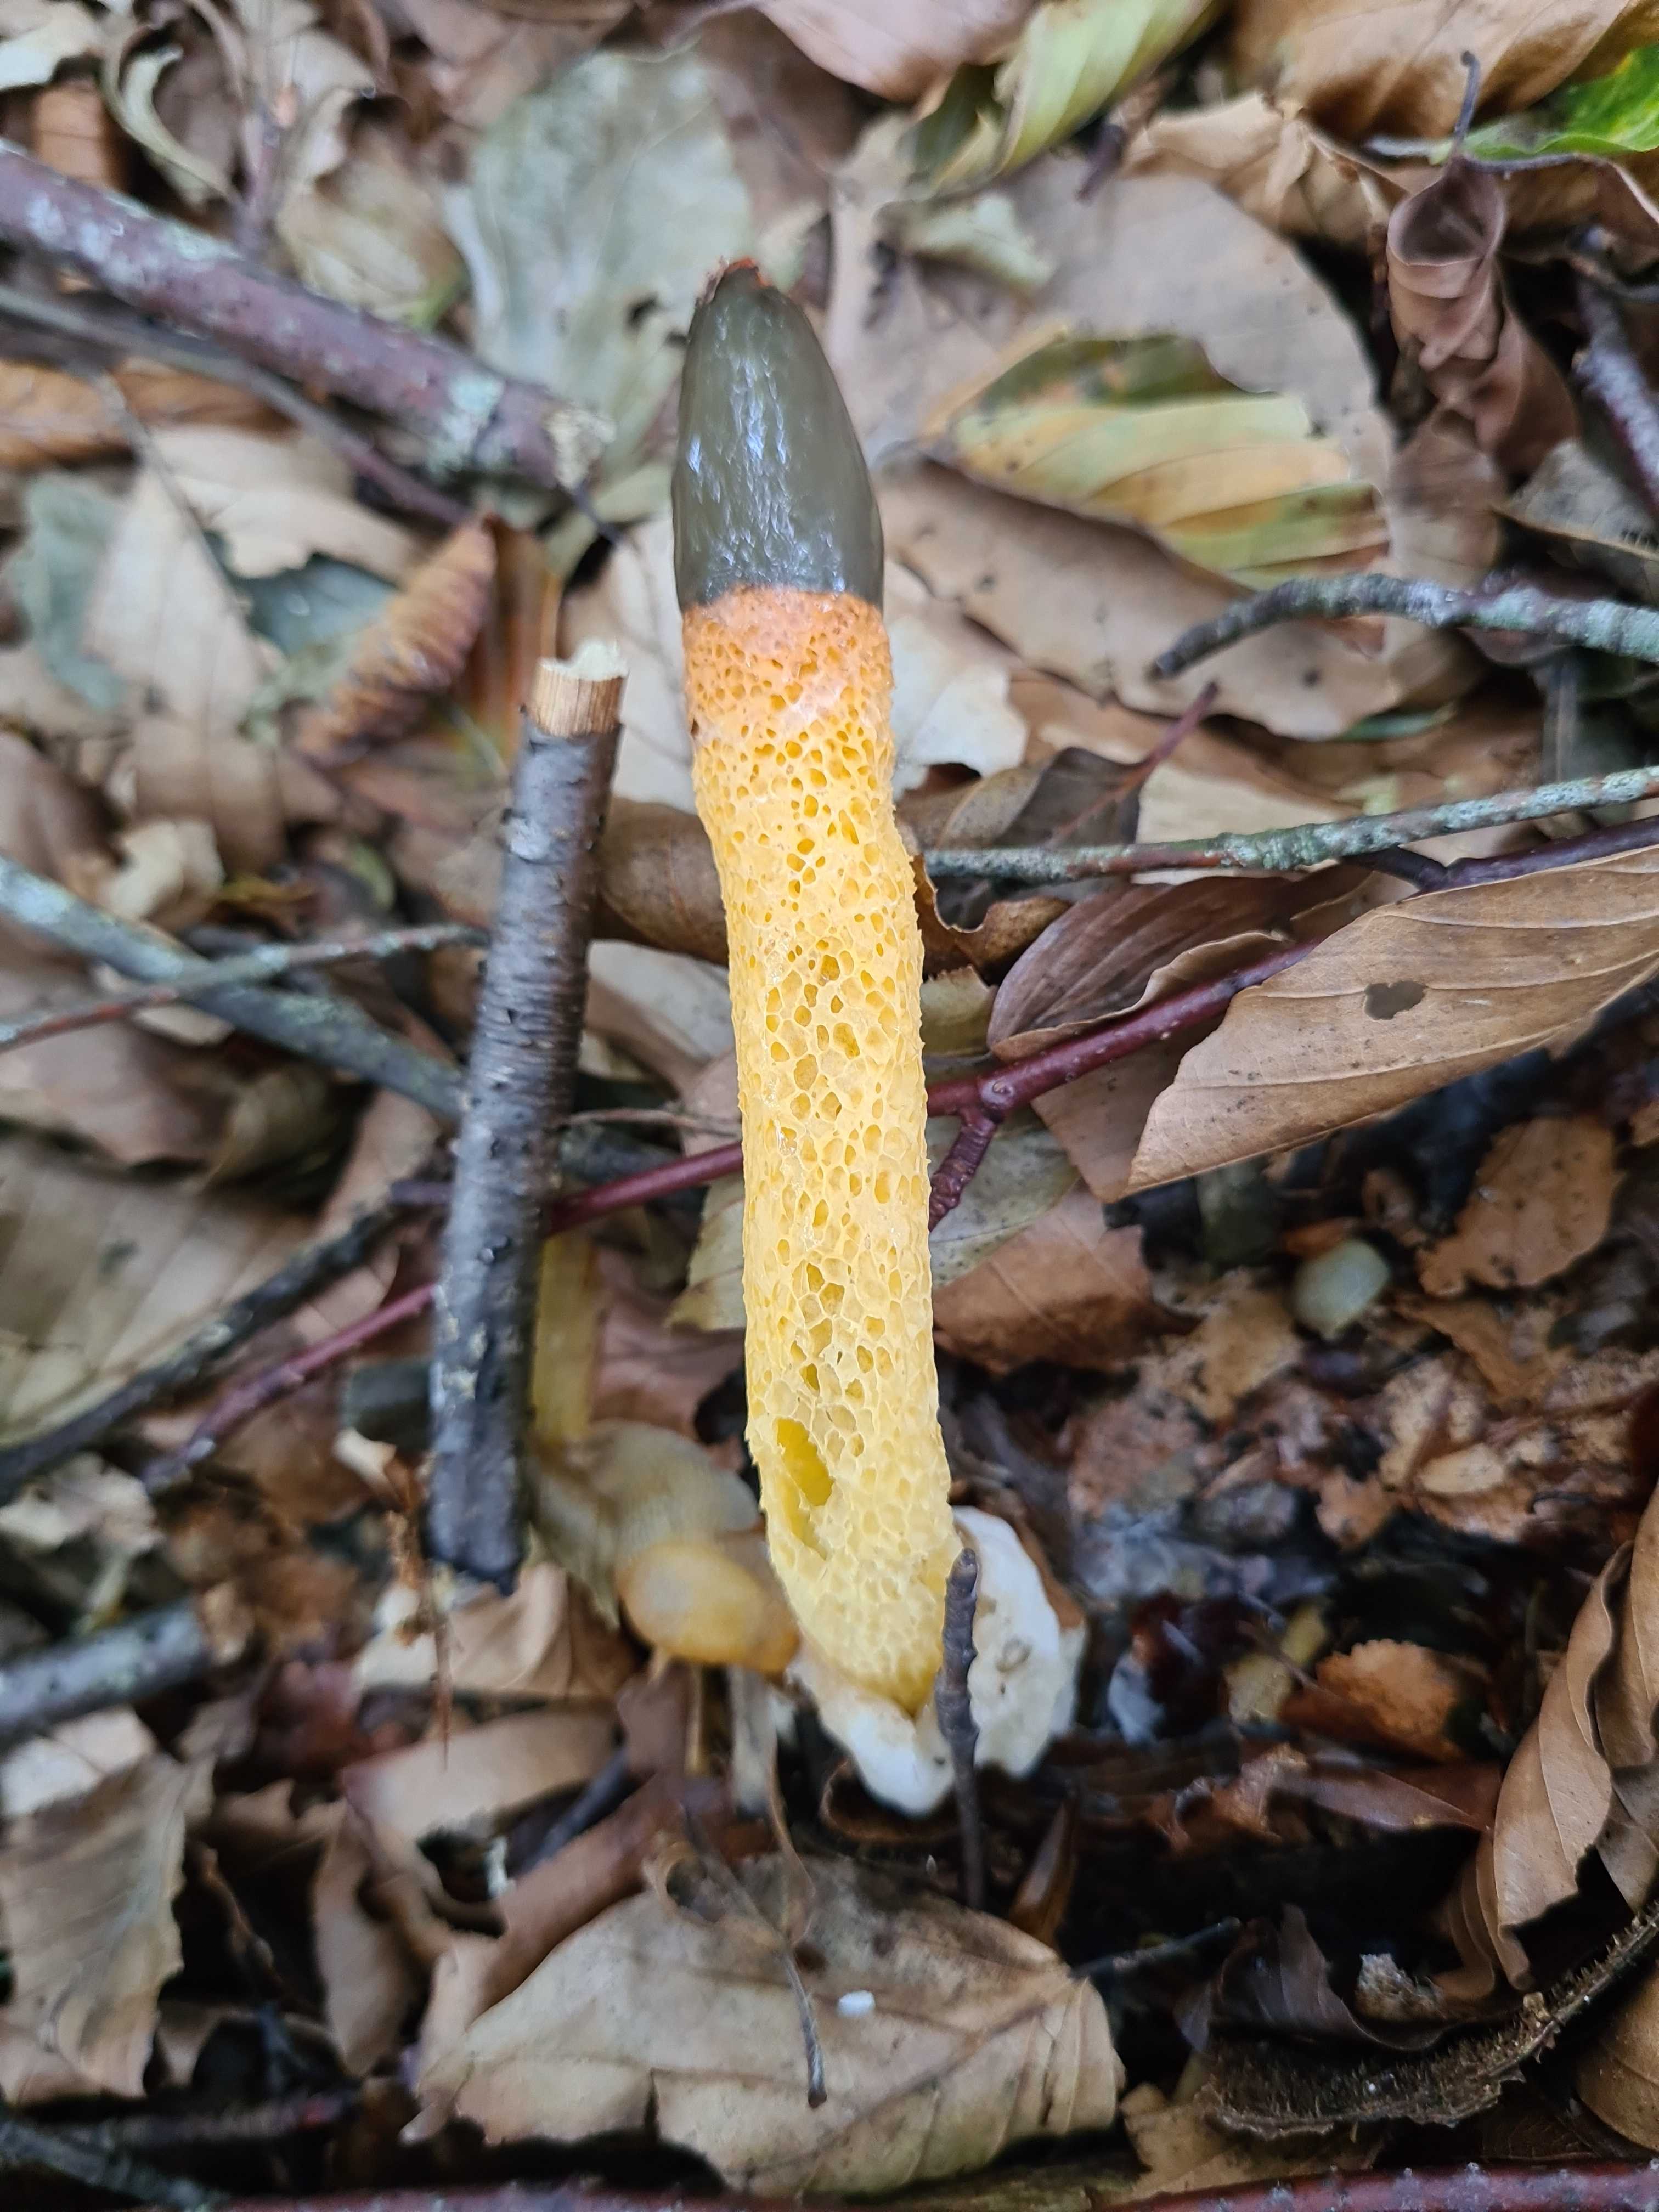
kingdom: Fungi
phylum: Basidiomycota
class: Agaricomycetes
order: Phallales
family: Phallaceae
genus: Mutinus
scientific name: Mutinus caninus
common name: hunde-stinksvamp
